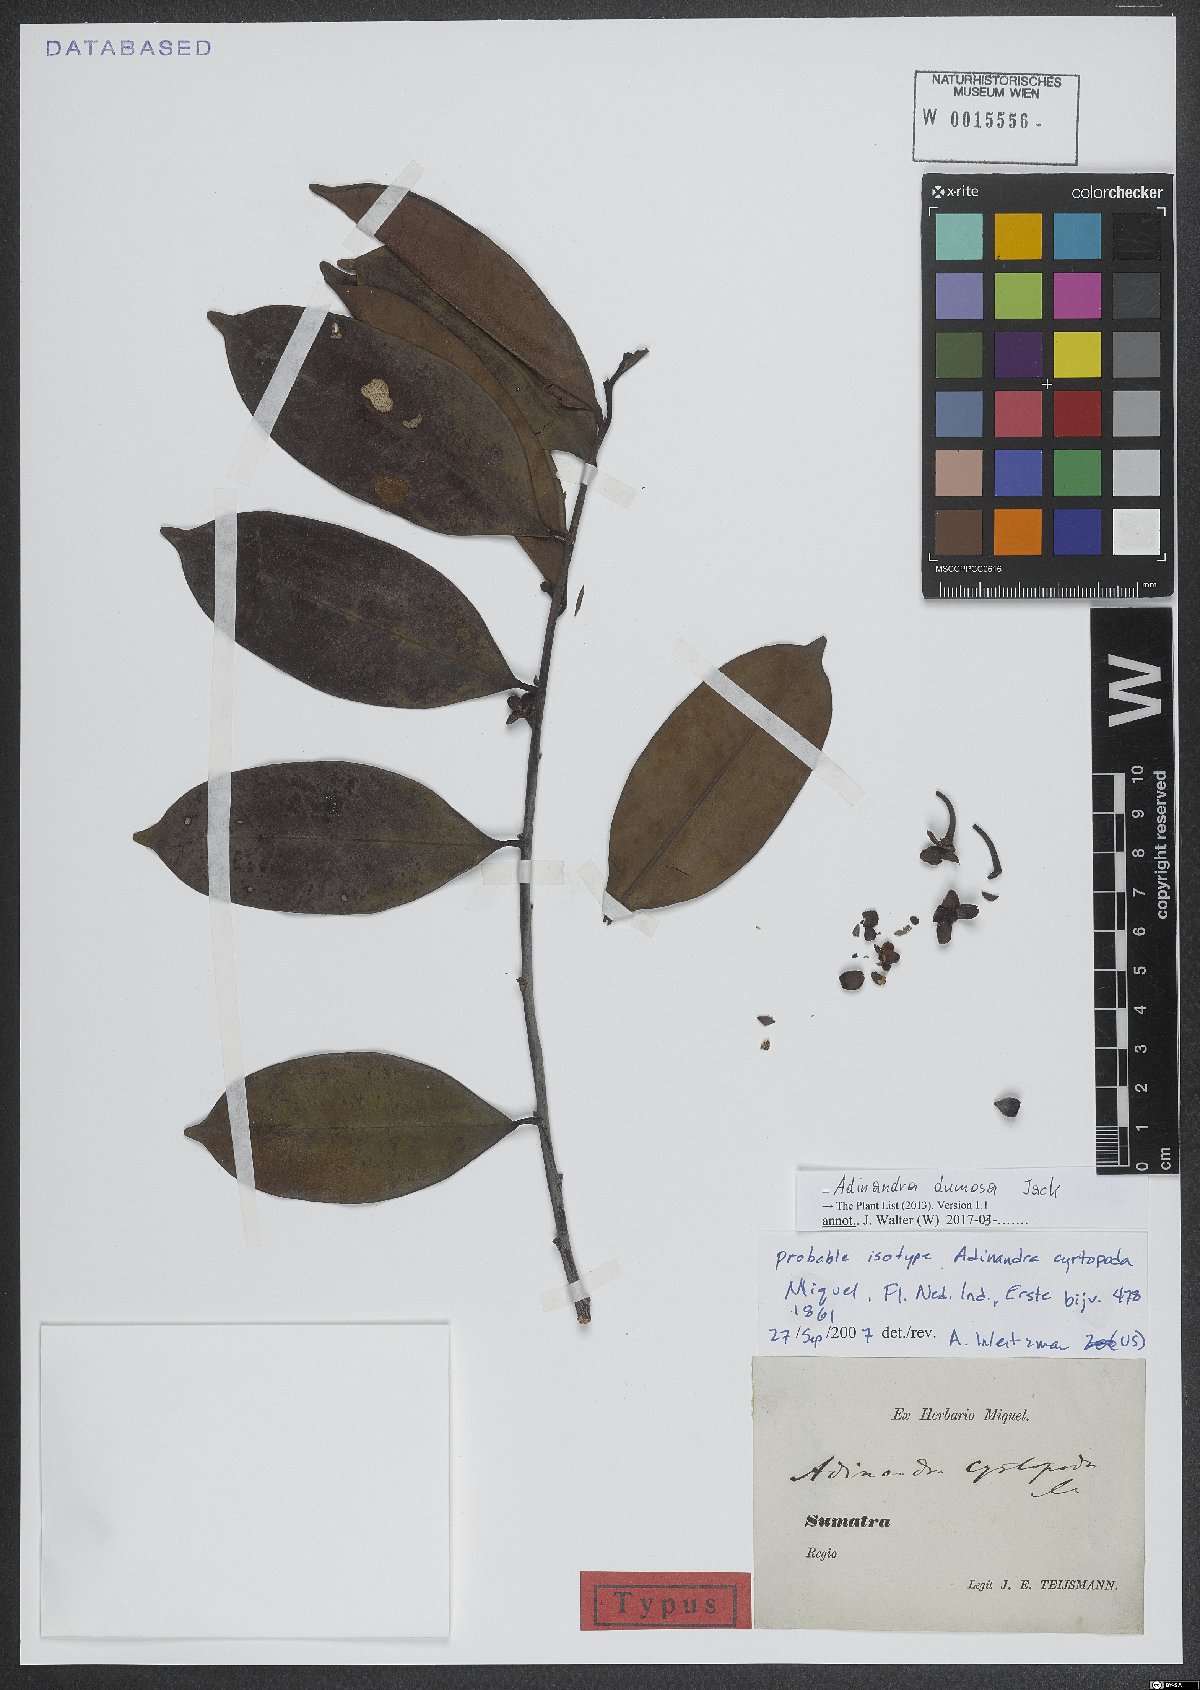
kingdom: Plantae
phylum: Tracheophyta
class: Magnoliopsida
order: Ericales
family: Pentaphylacaceae
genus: Adinandra
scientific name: Adinandra dumosa
